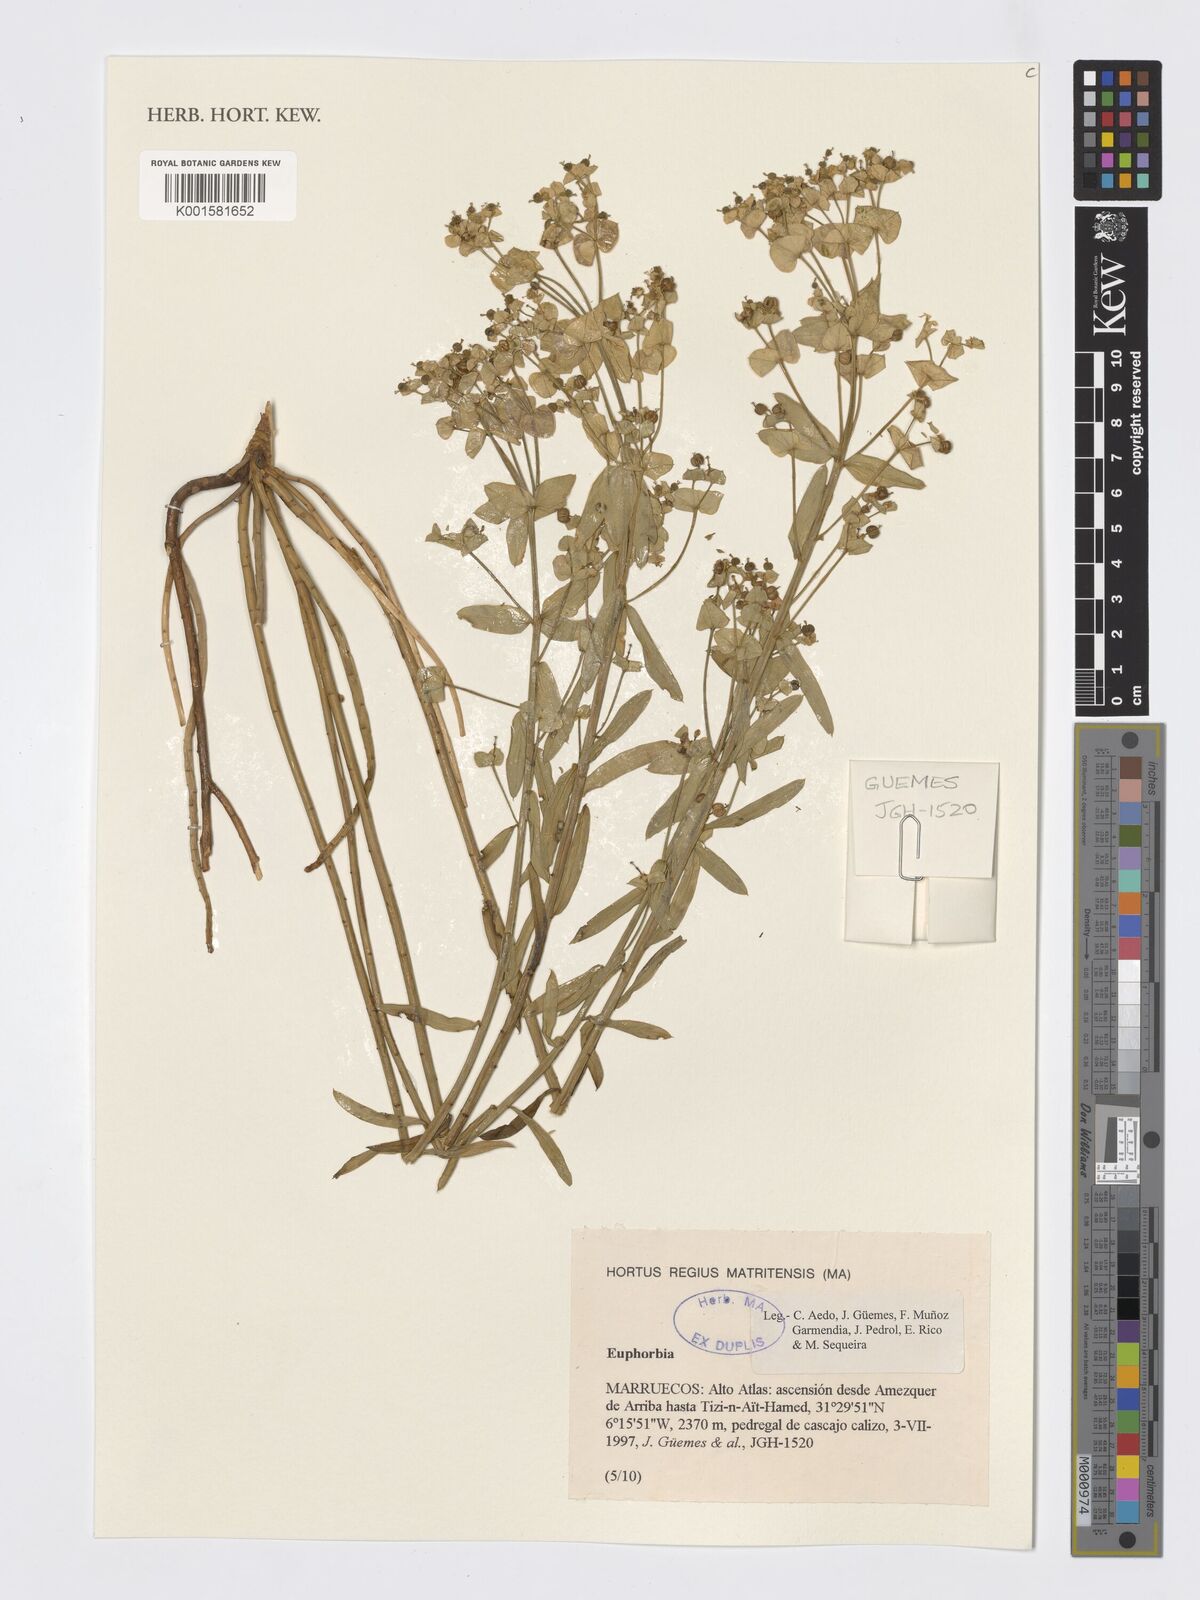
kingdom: Plantae
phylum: Tracheophyta
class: Magnoliopsida
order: Malpighiales
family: Euphorbiaceae
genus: Euphorbia
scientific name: Euphorbia
